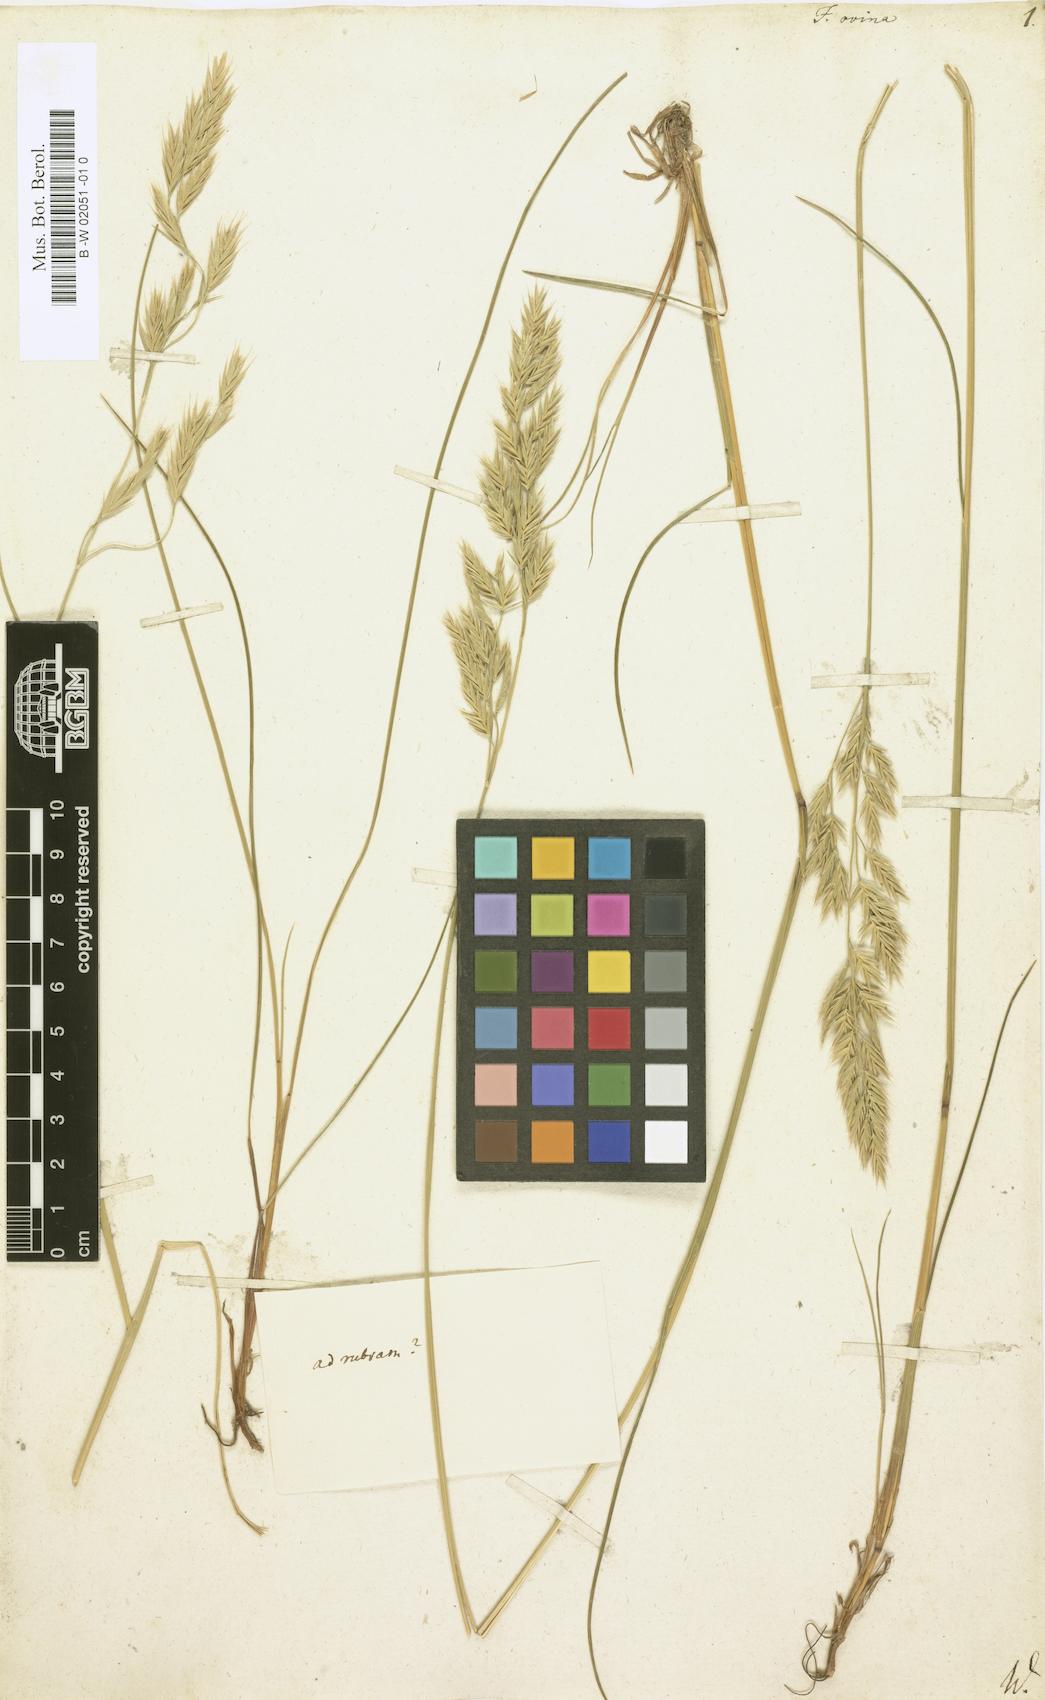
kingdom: Plantae
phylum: Tracheophyta
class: Liliopsida
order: Poales
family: Poaceae
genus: Festuca
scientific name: Festuca ovina
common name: Sheep fescue
